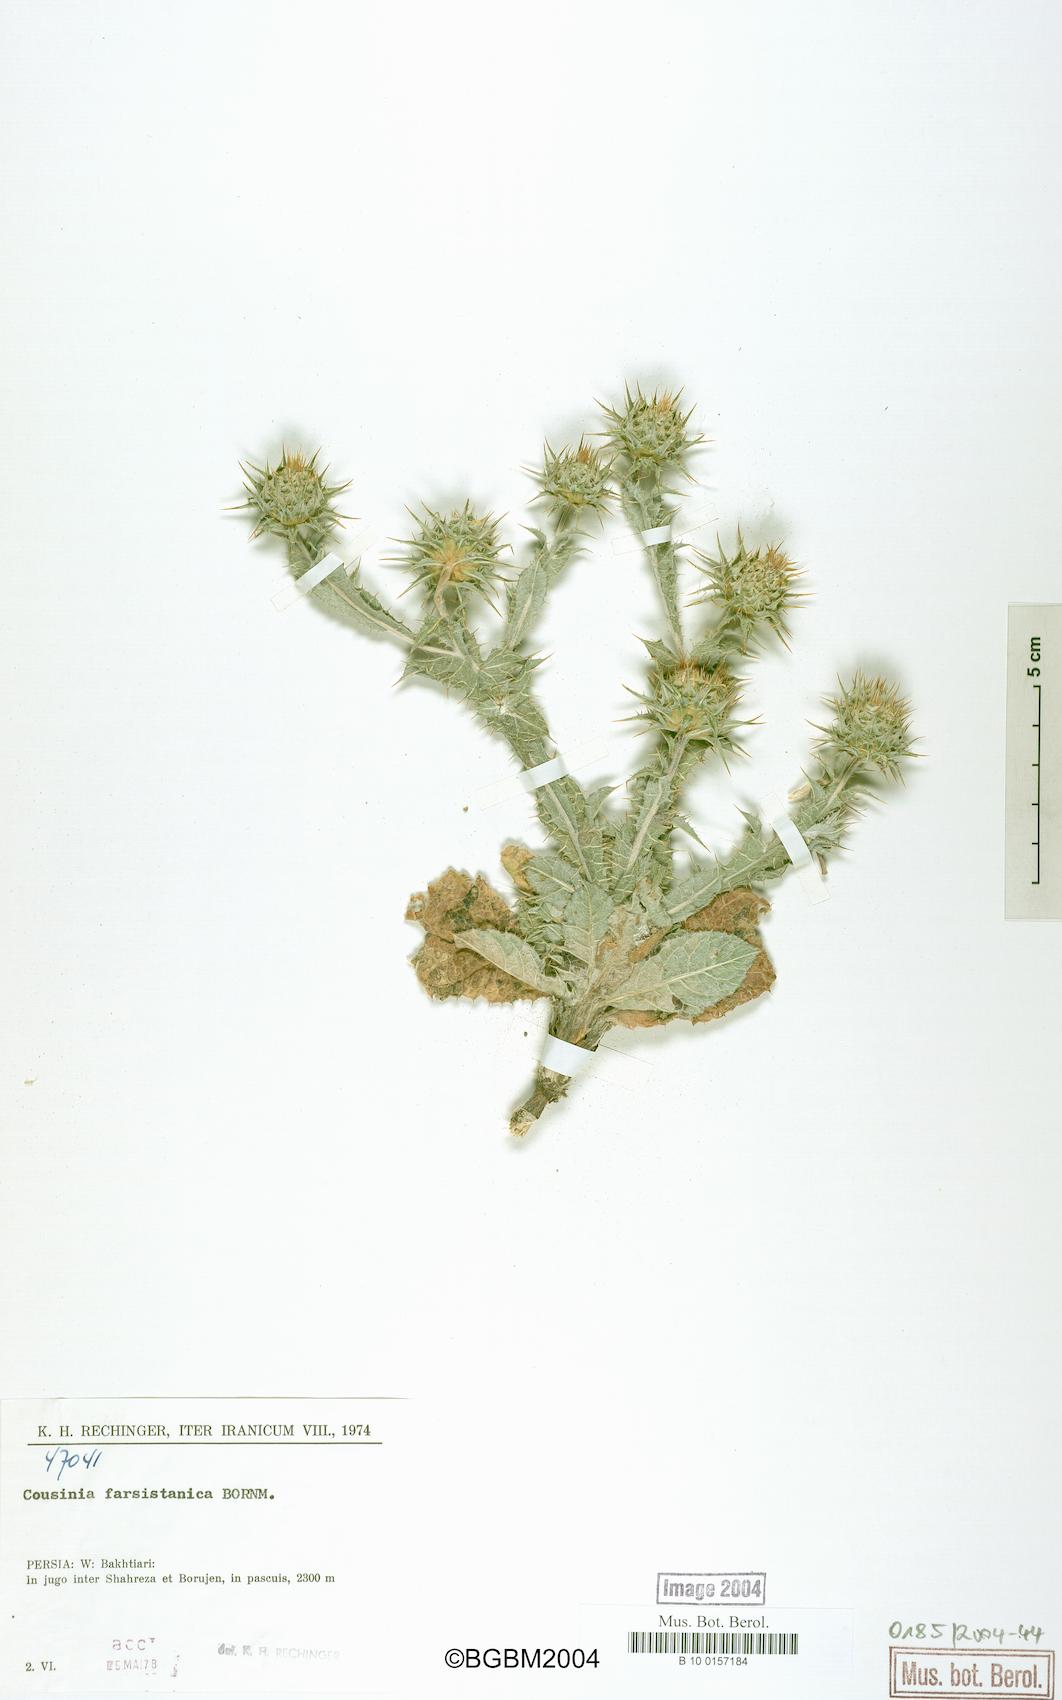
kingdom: Plantae
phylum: Tracheophyta
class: Magnoliopsida
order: Asterales
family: Asteraceae
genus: Cousinia
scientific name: Cousinia farsistanica
